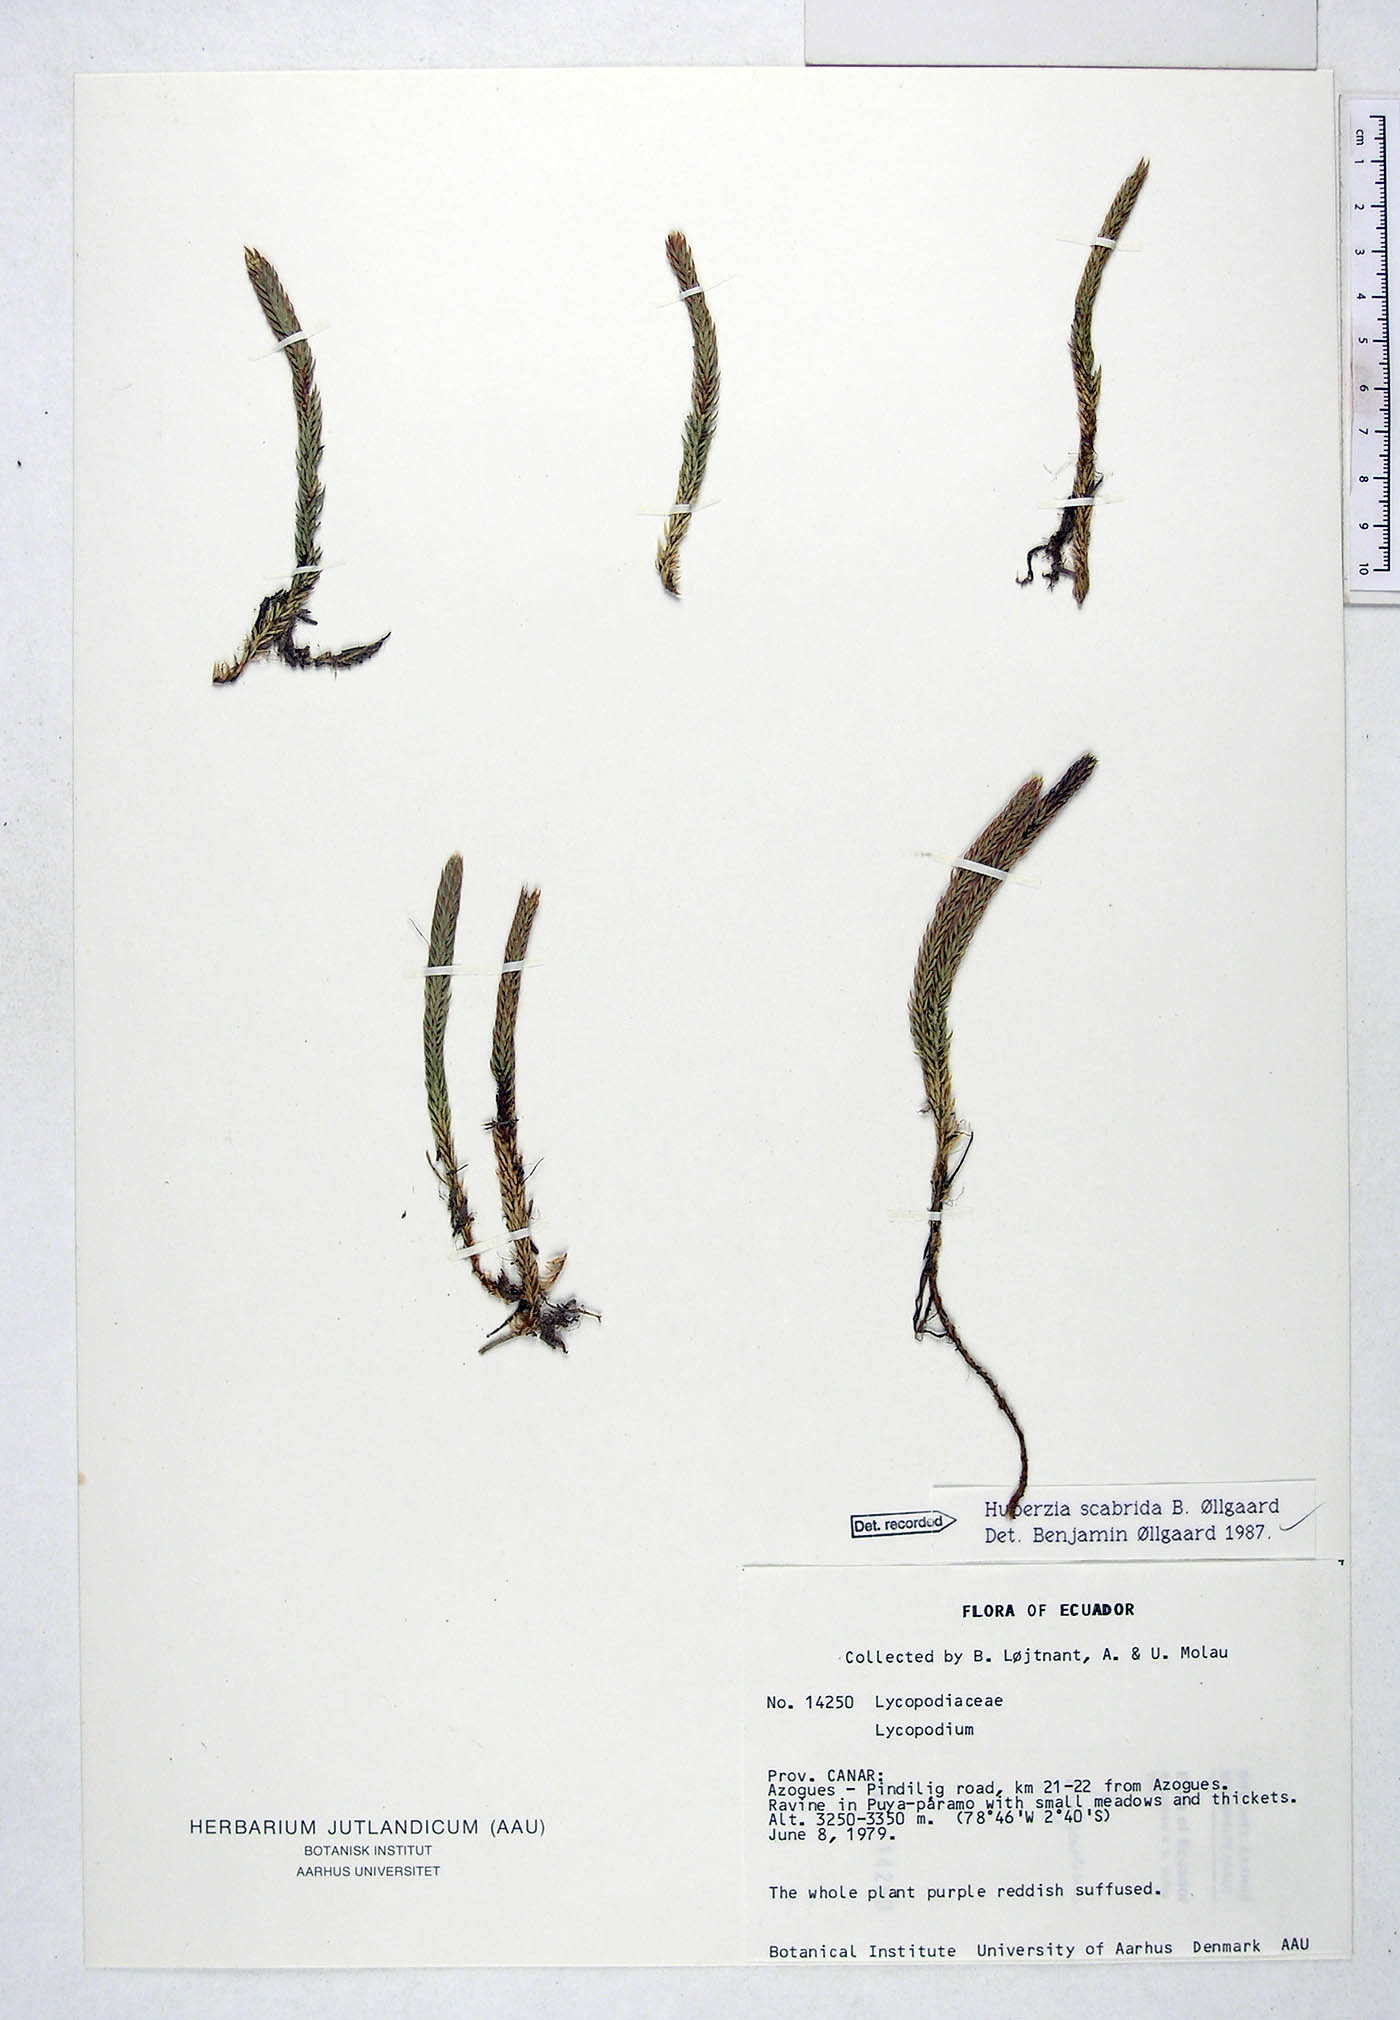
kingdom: Plantae
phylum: Tracheophyta
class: Lycopodiopsida
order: Lycopodiales
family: Lycopodiaceae
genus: Phlegmariurus
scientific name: Phlegmariurus scabridus
